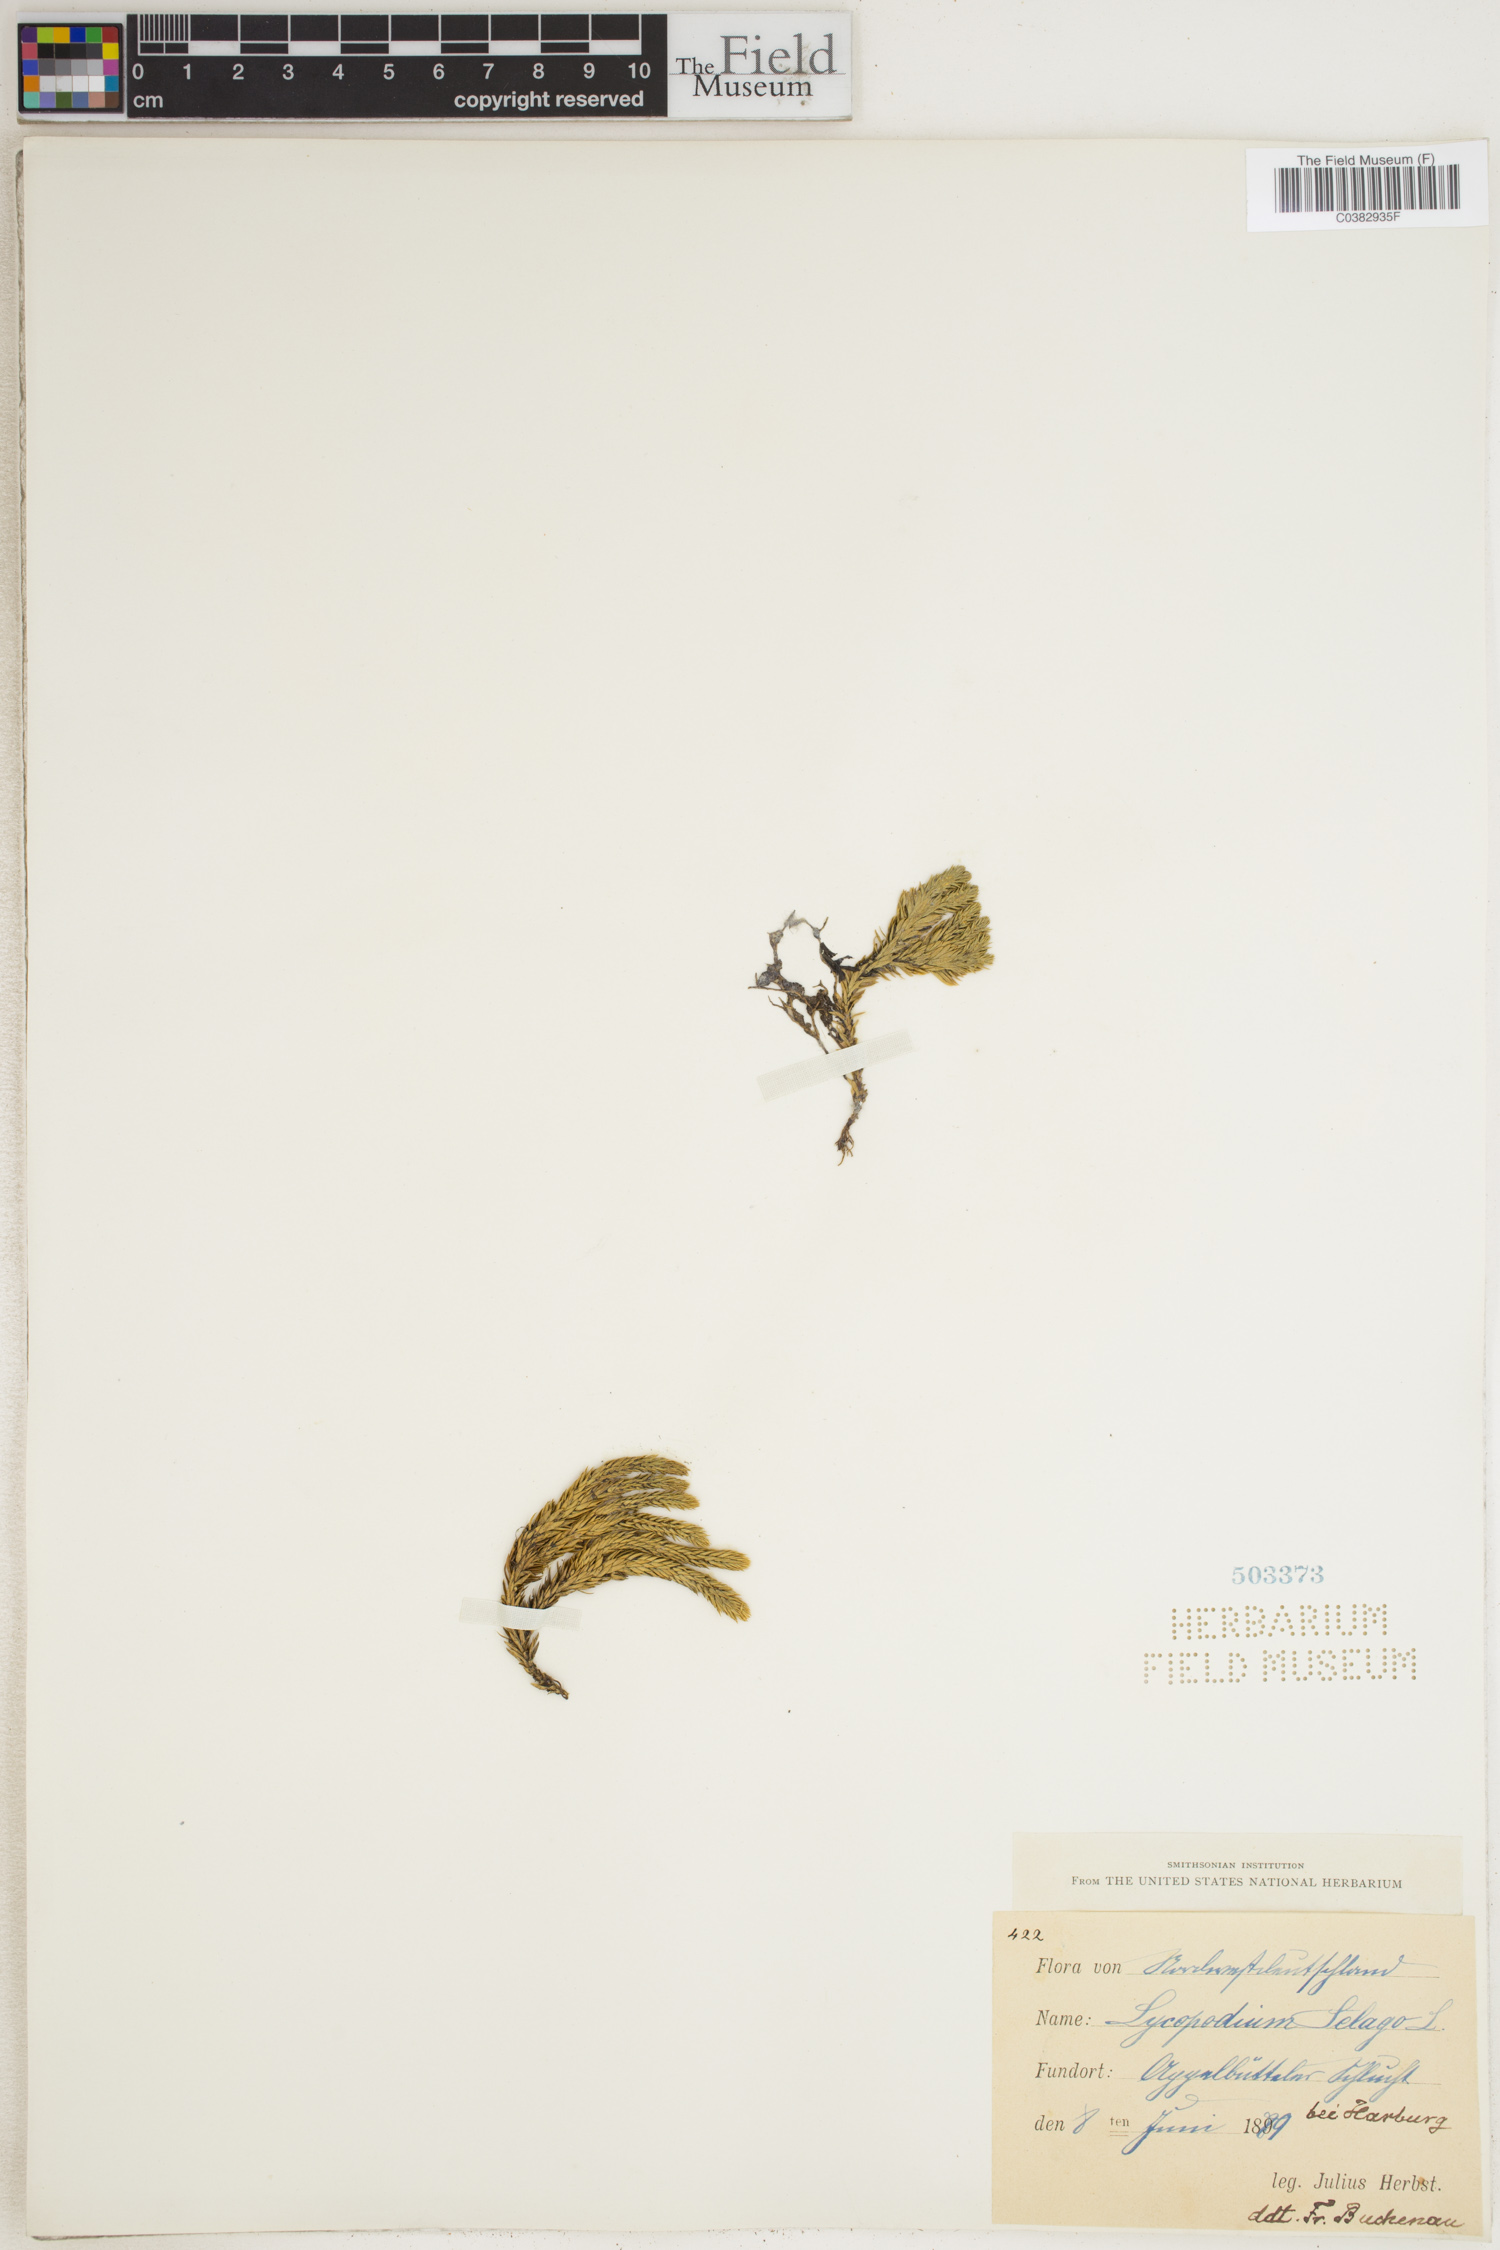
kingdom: Plantae
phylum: Tracheophyta
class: Lycopodiopsida
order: Lycopodiales
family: Lycopodiaceae
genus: Huperzia
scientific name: Huperzia selago
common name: Northern firmoss
